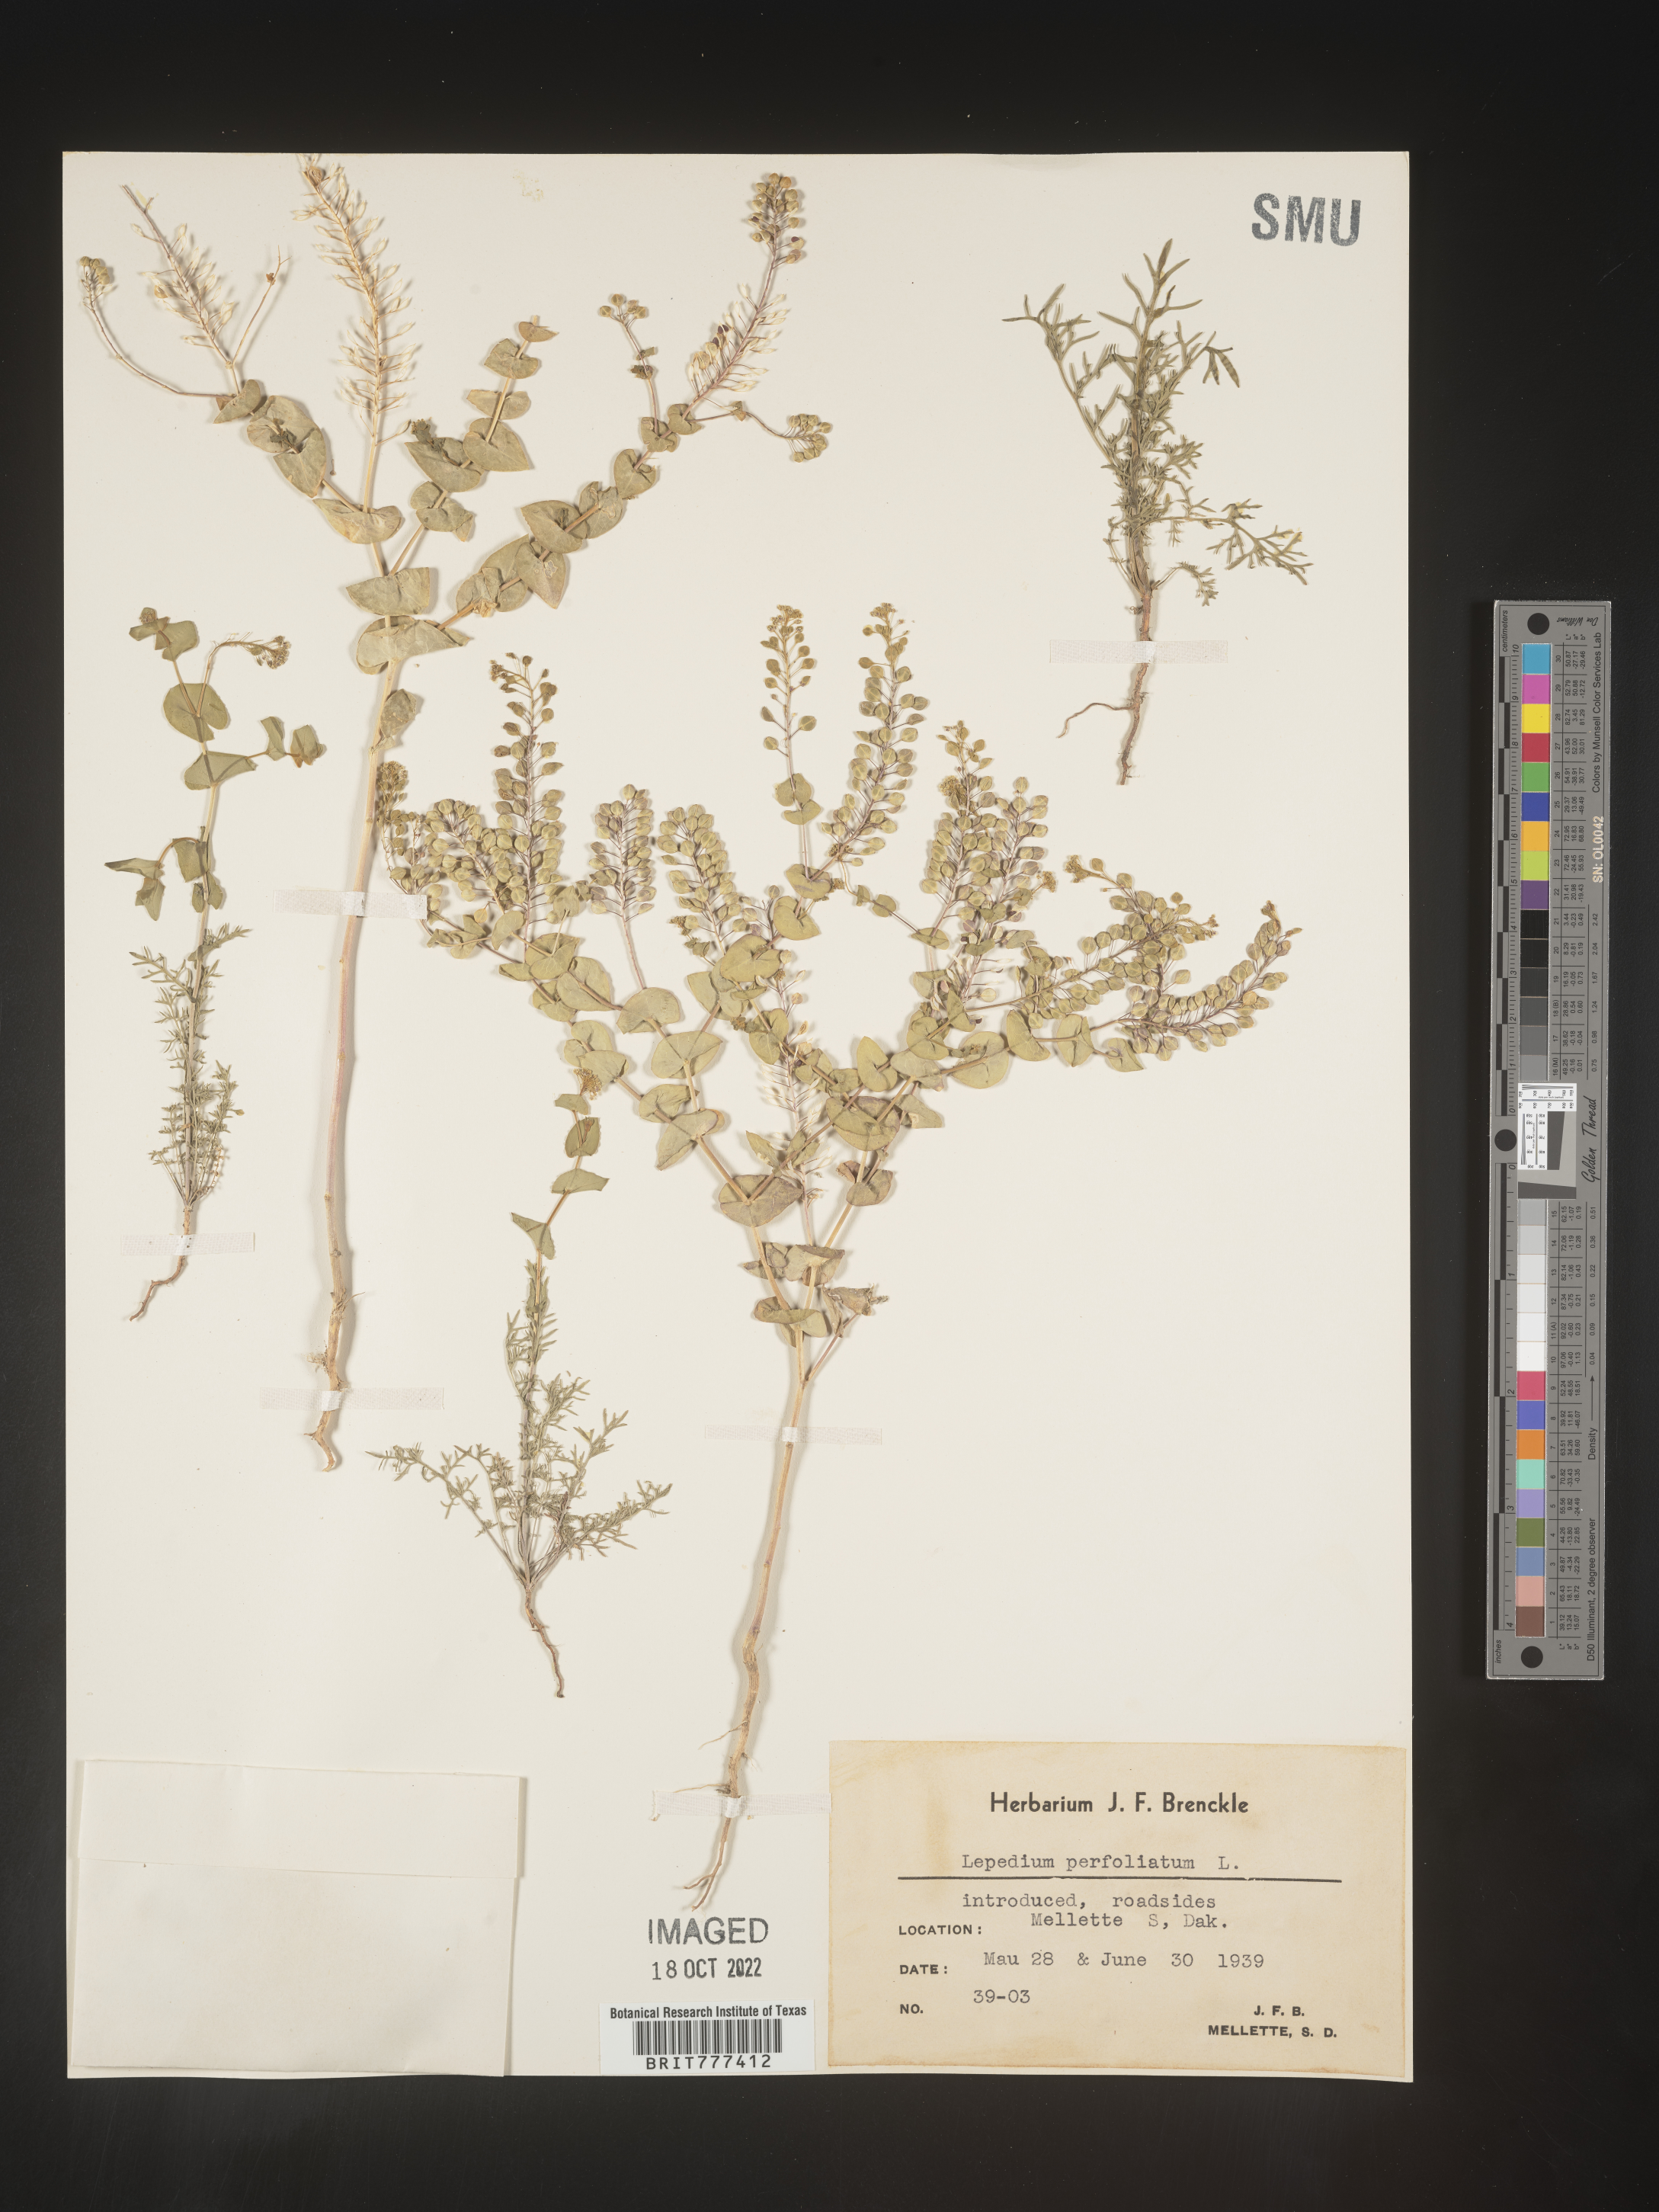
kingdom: Plantae
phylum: Tracheophyta
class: Magnoliopsida
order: Brassicales
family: Brassicaceae
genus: Lepidium
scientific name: Lepidium perfoliatum
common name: Perfoliate pepperwort
